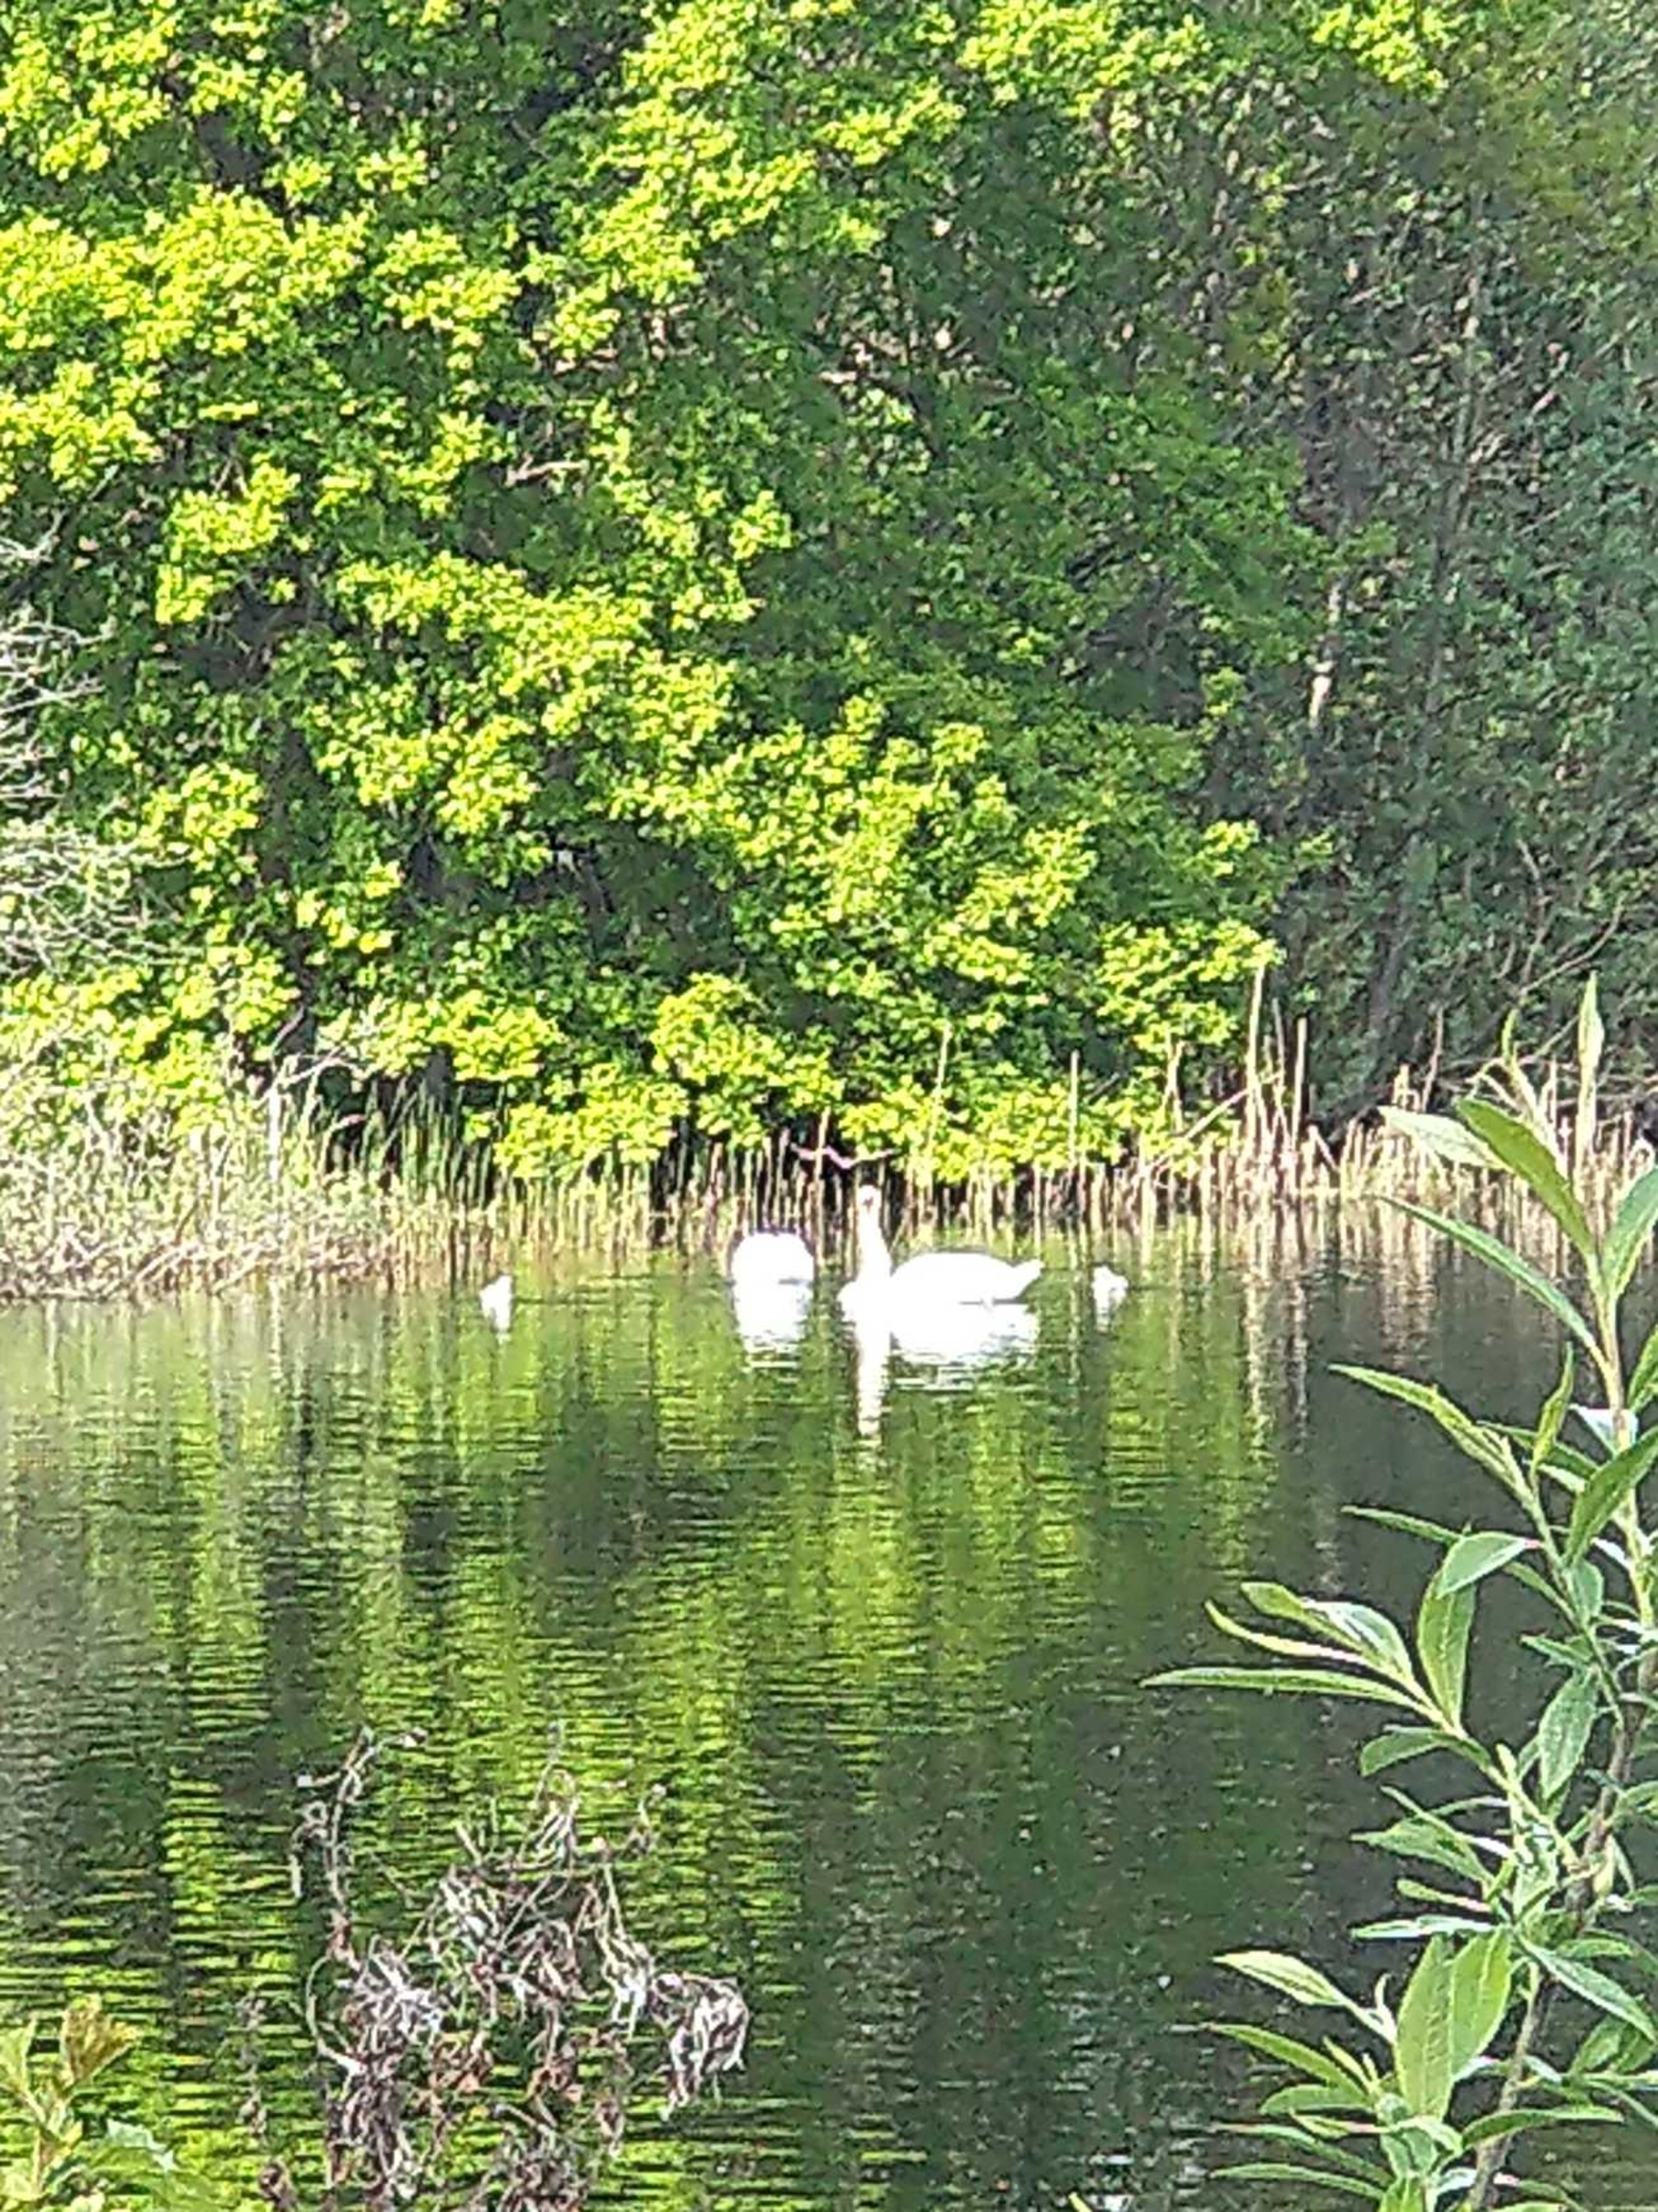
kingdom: Animalia
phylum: Chordata
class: Aves
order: Anseriformes
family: Anatidae
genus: Cygnus
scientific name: Cygnus olor
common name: Knopsvane
